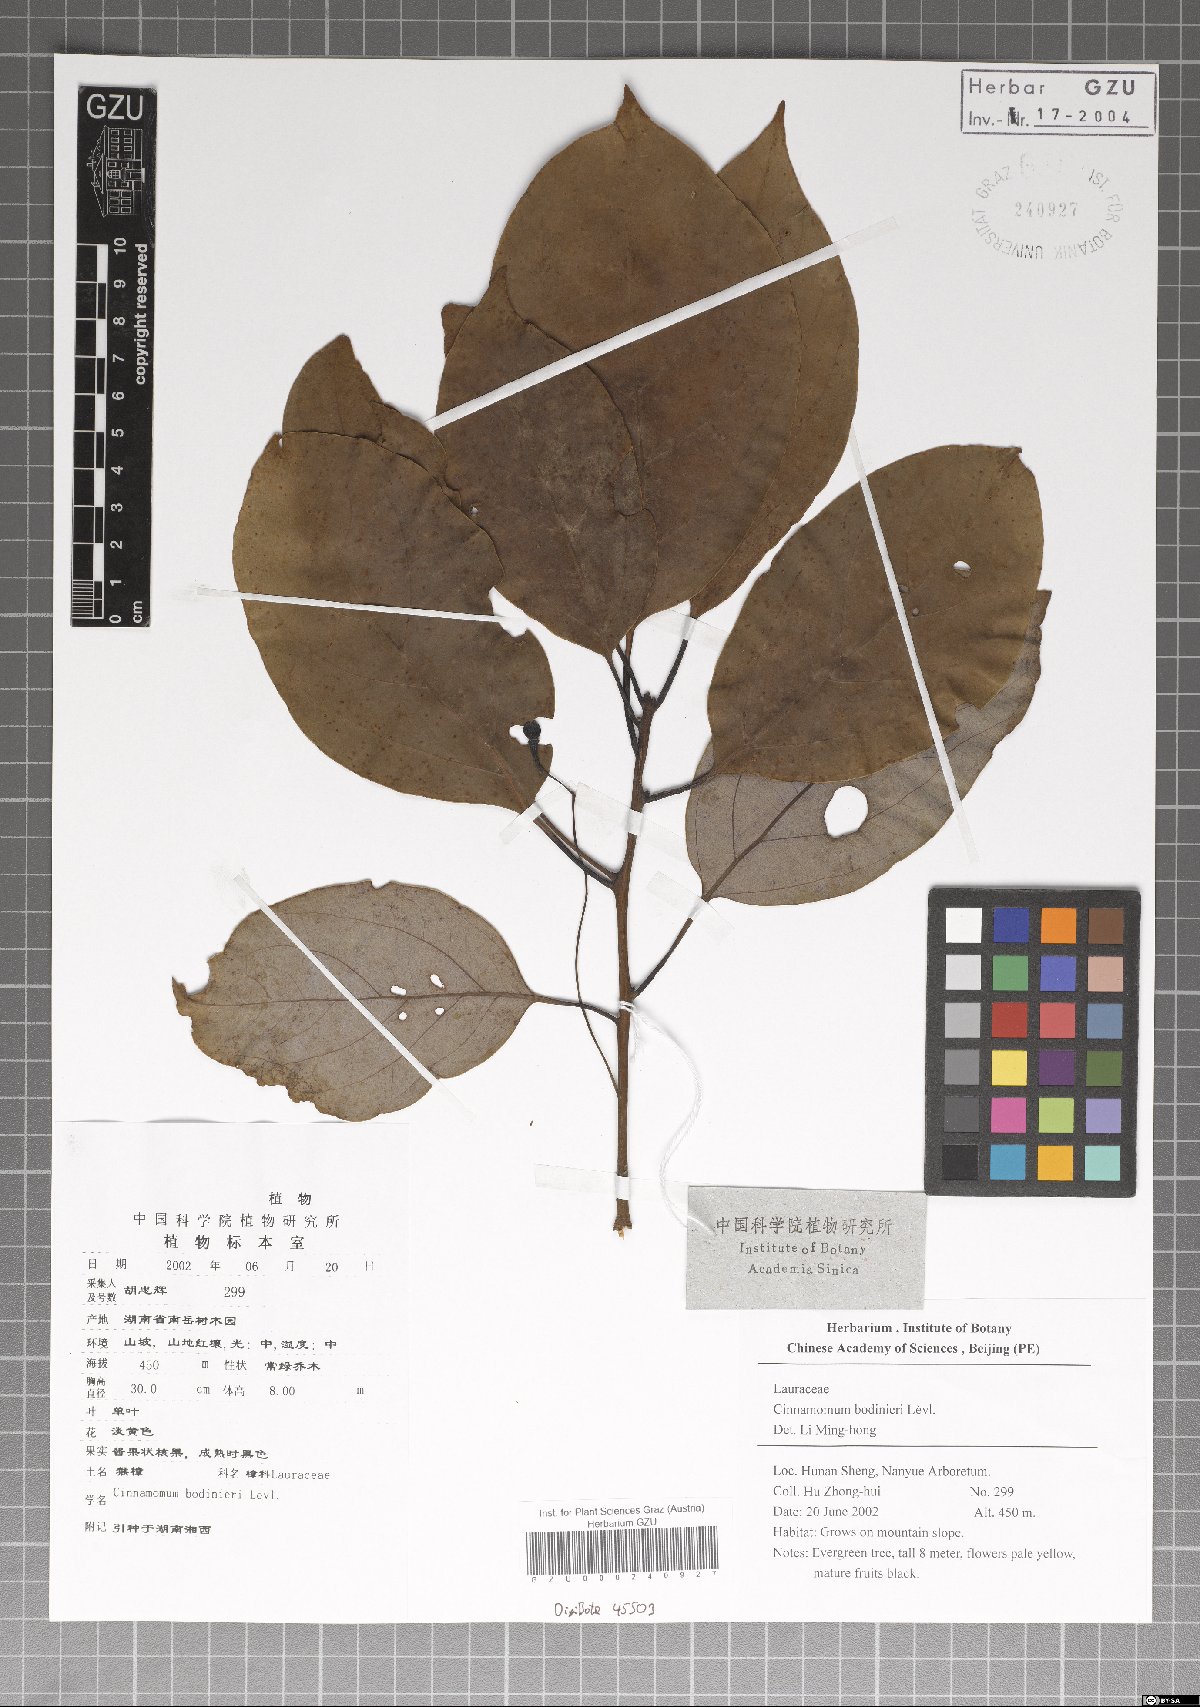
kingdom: Plantae
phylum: Tracheophyta
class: Magnoliopsida
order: Laurales
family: Lauraceae
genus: Cinnamomum
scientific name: Cinnamomum bodinieri
